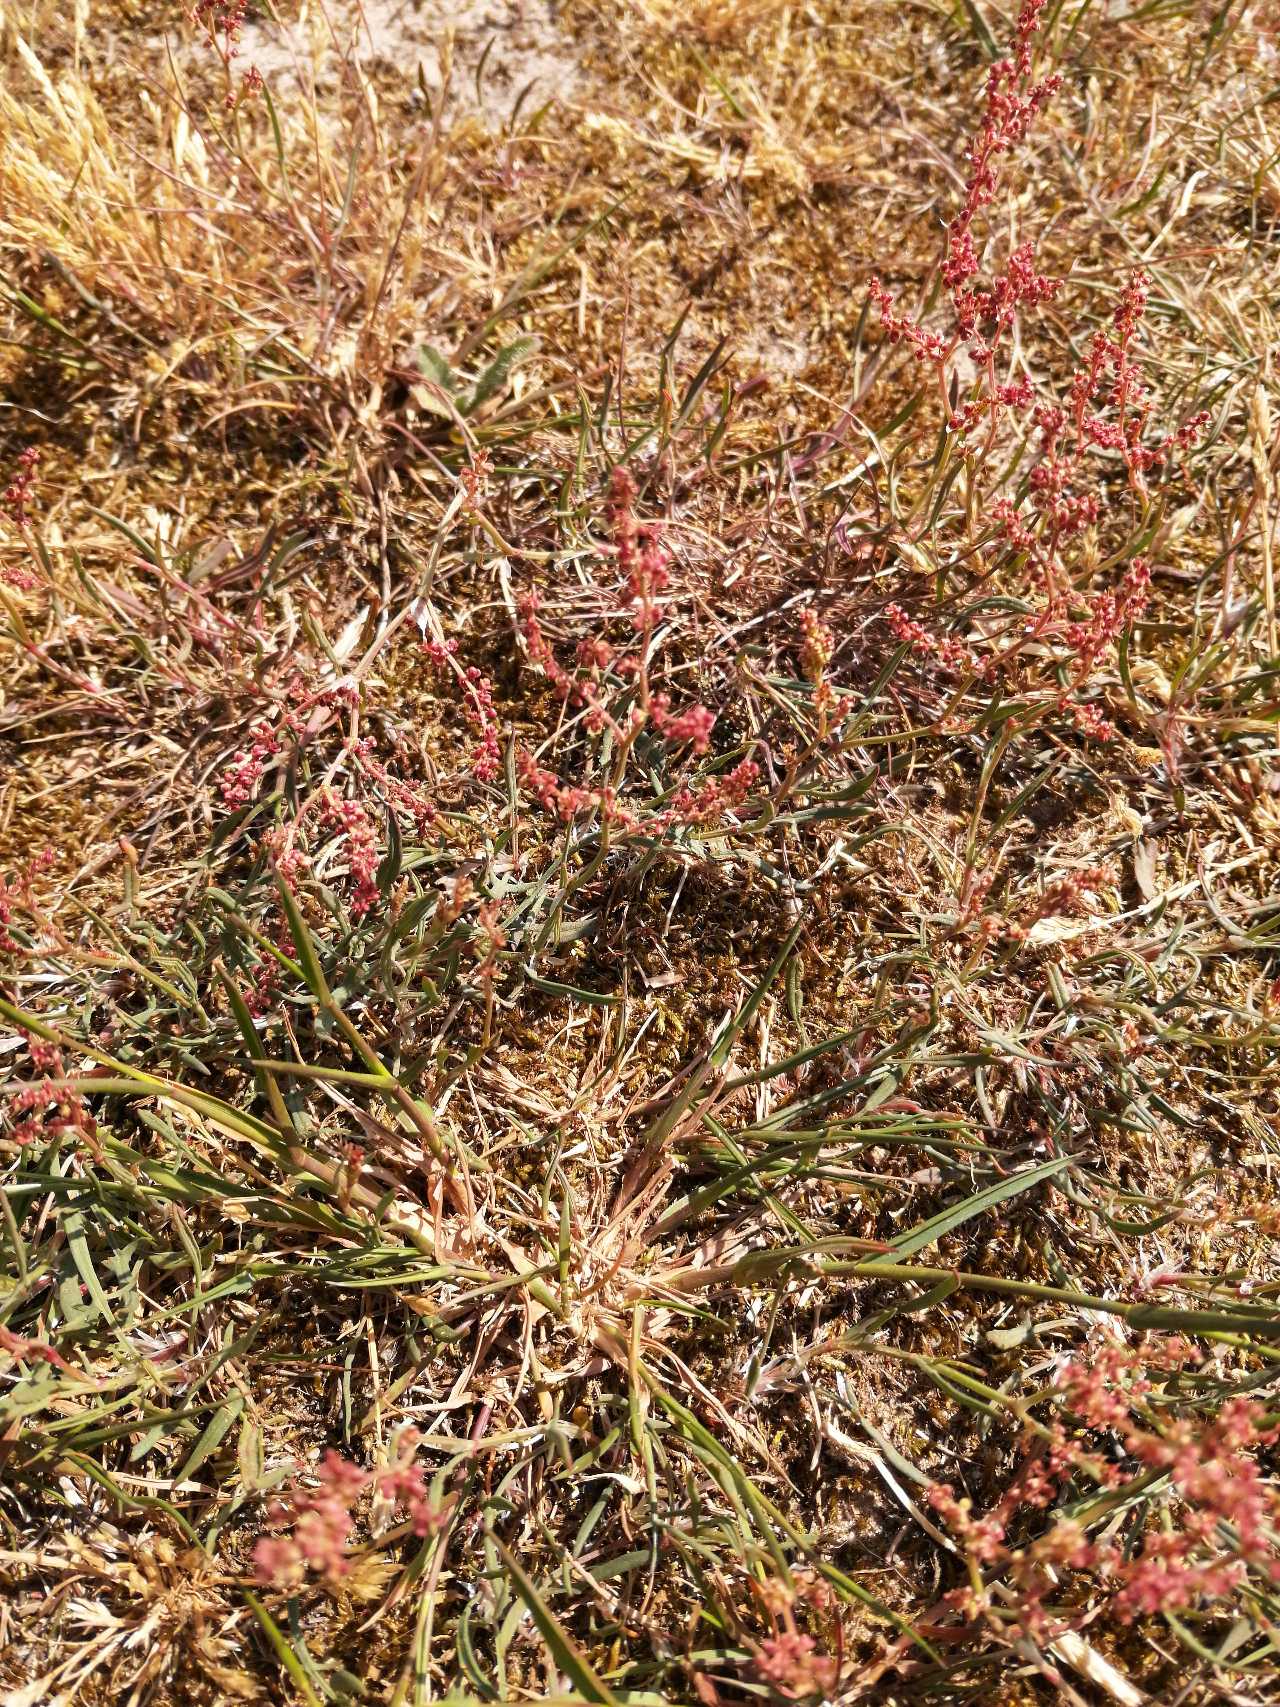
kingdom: Plantae
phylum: Tracheophyta
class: Liliopsida
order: Poales
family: Poaceae
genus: Agrostis
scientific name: Agrostis capillaris
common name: Almindelig hvene
